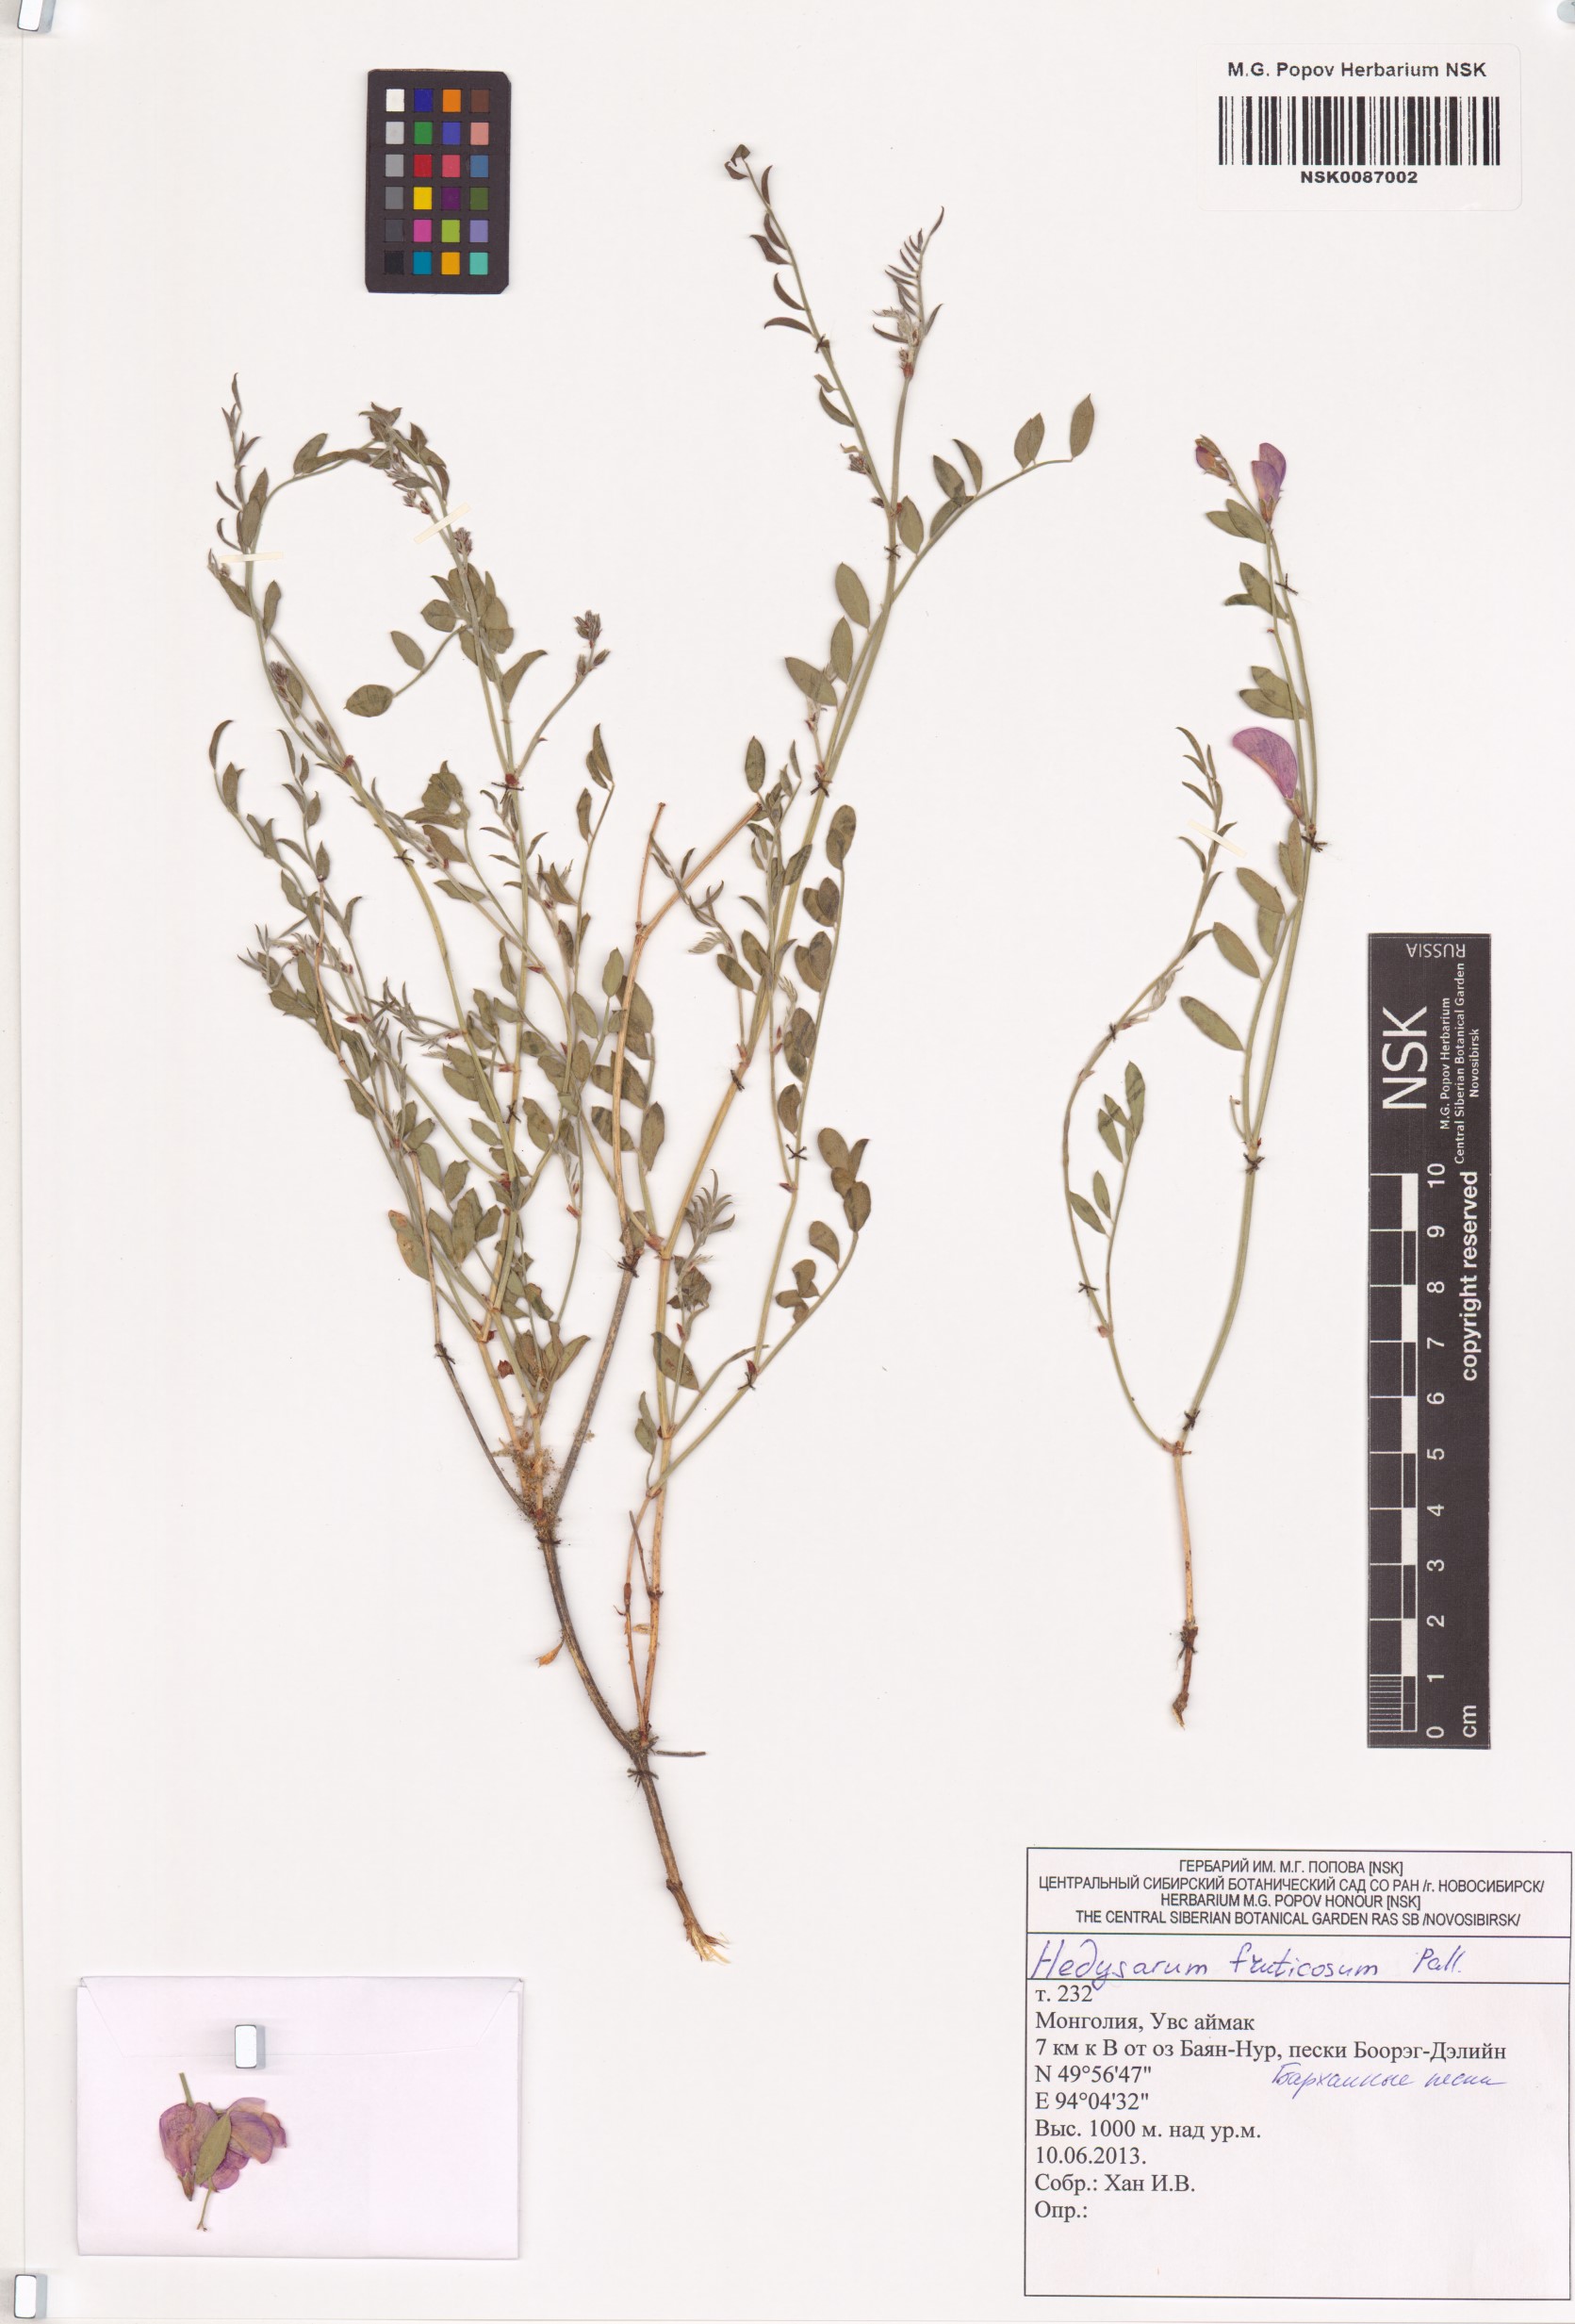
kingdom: Plantae
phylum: Tracheophyta
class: Magnoliopsida
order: Fabales
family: Fabaceae
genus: Corethrodendron
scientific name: Corethrodendron fruticosum
